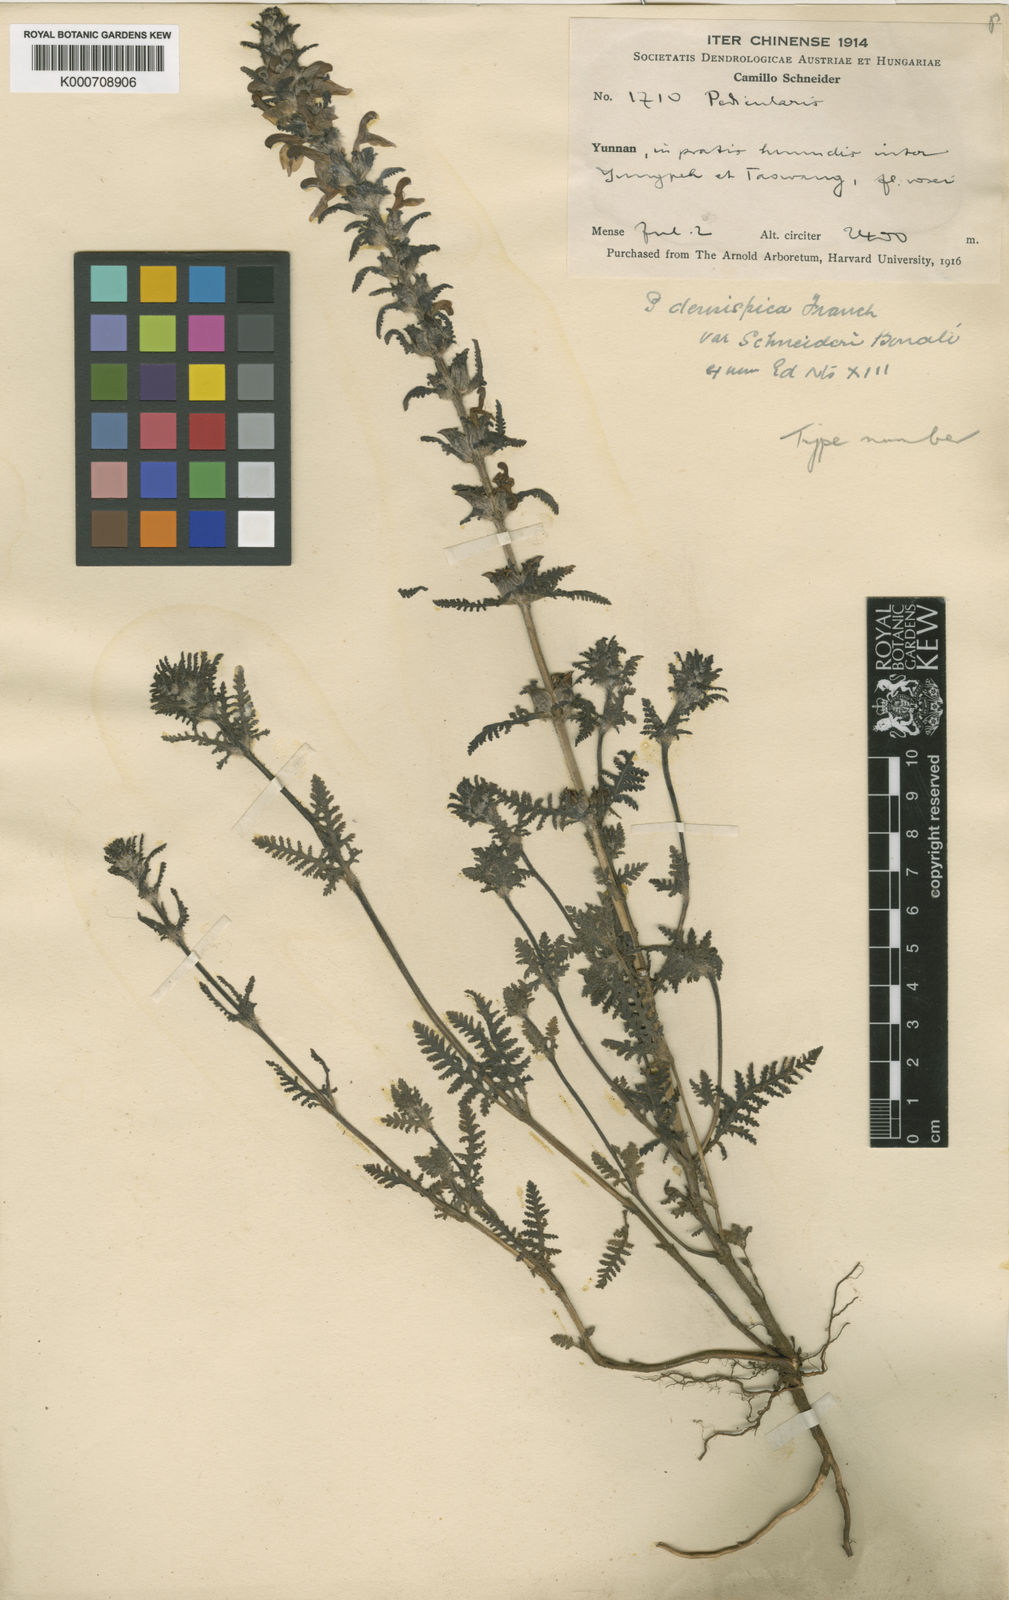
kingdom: Plantae
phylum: Tracheophyta
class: Magnoliopsida
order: Lamiales
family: Orobanchaceae
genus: Pedicularis
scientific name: Pedicularis
